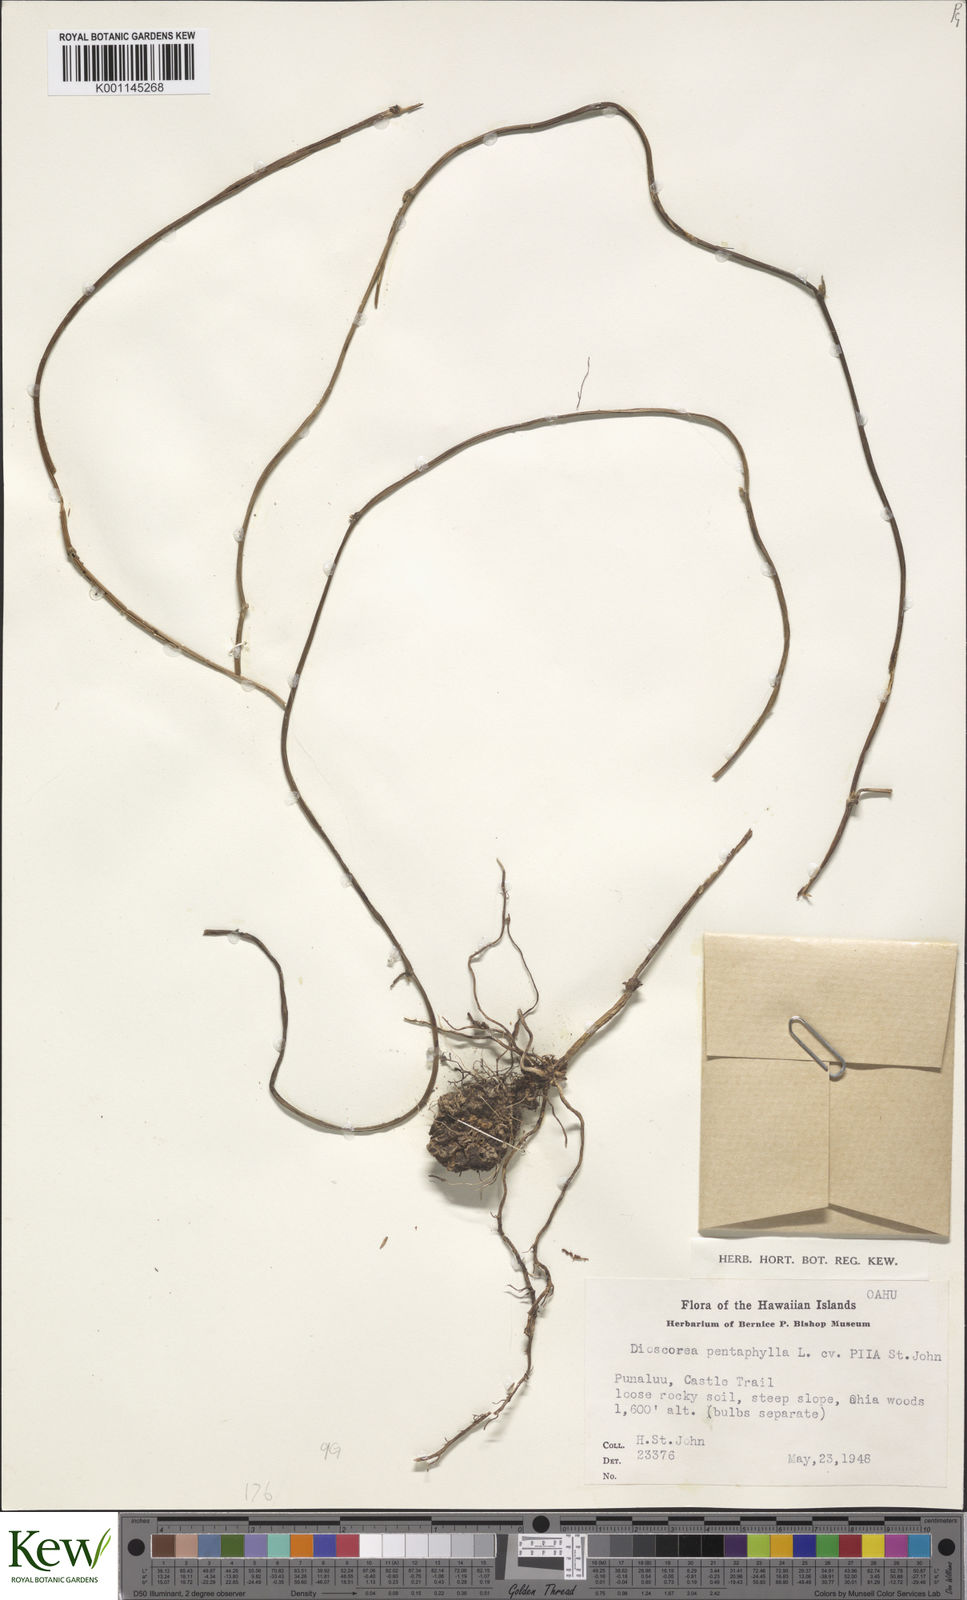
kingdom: Plantae
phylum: Tracheophyta
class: Liliopsida
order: Dioscoreales
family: Dioscoreaceae
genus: Dioscorea
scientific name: Dioscorea pentaphylla
